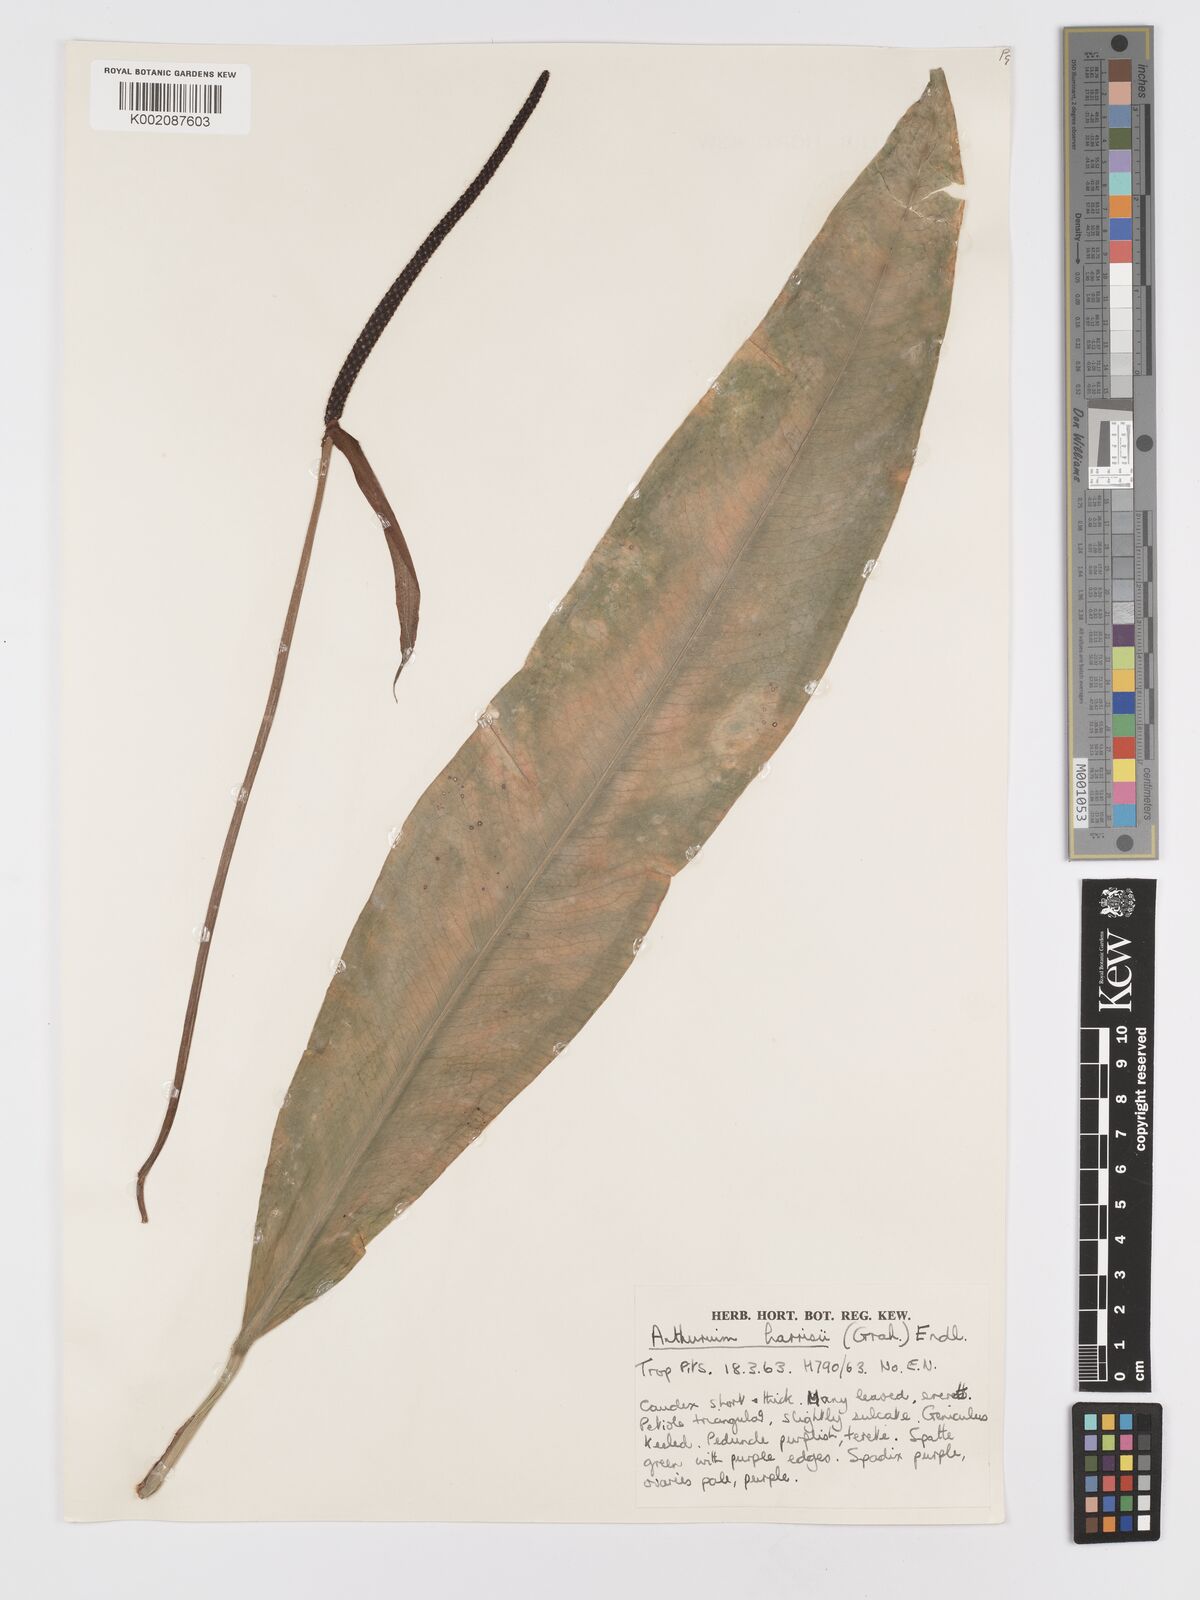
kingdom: Plantae
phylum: Tracheophyta
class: Liliopsida
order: Alismatales
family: Araceae
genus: Anthurium
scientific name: Anthurium harrisii
